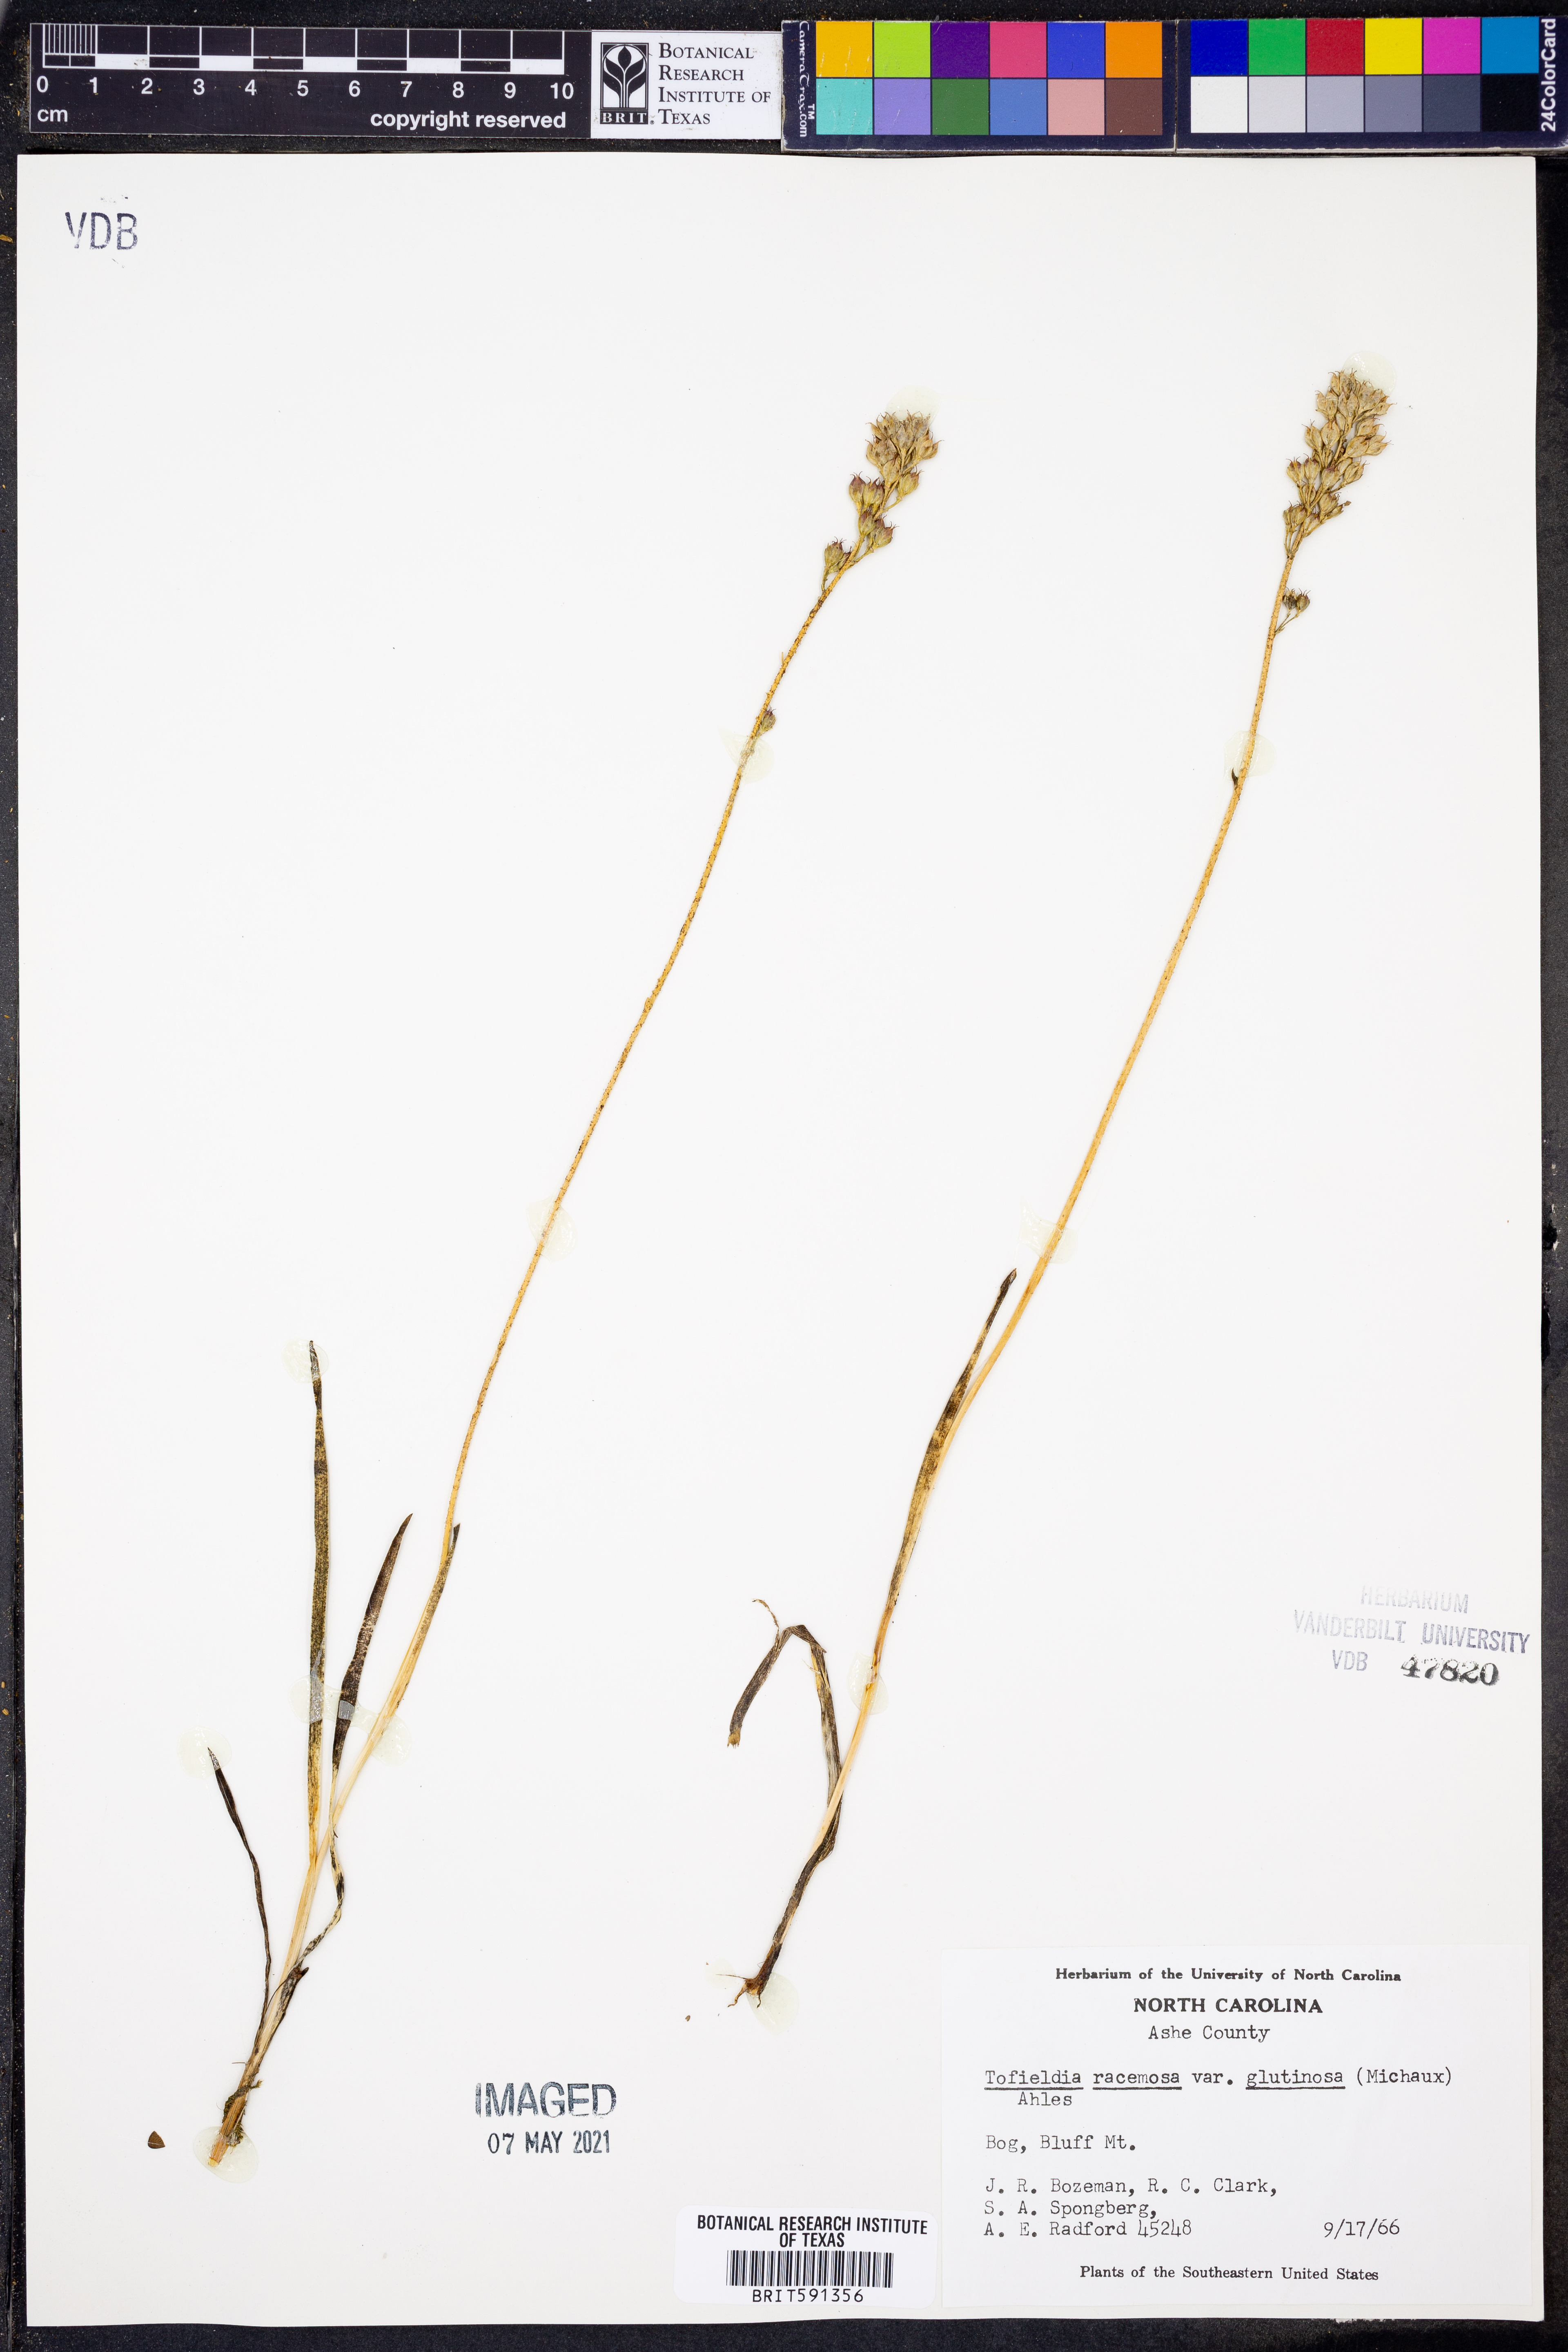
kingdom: Plantae
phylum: Tracheophyta
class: Liliopsida
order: Alismatales
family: Tofieldiaceae
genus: Triantha
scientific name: Triantha glutinosa
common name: Glutinous tofieldia
